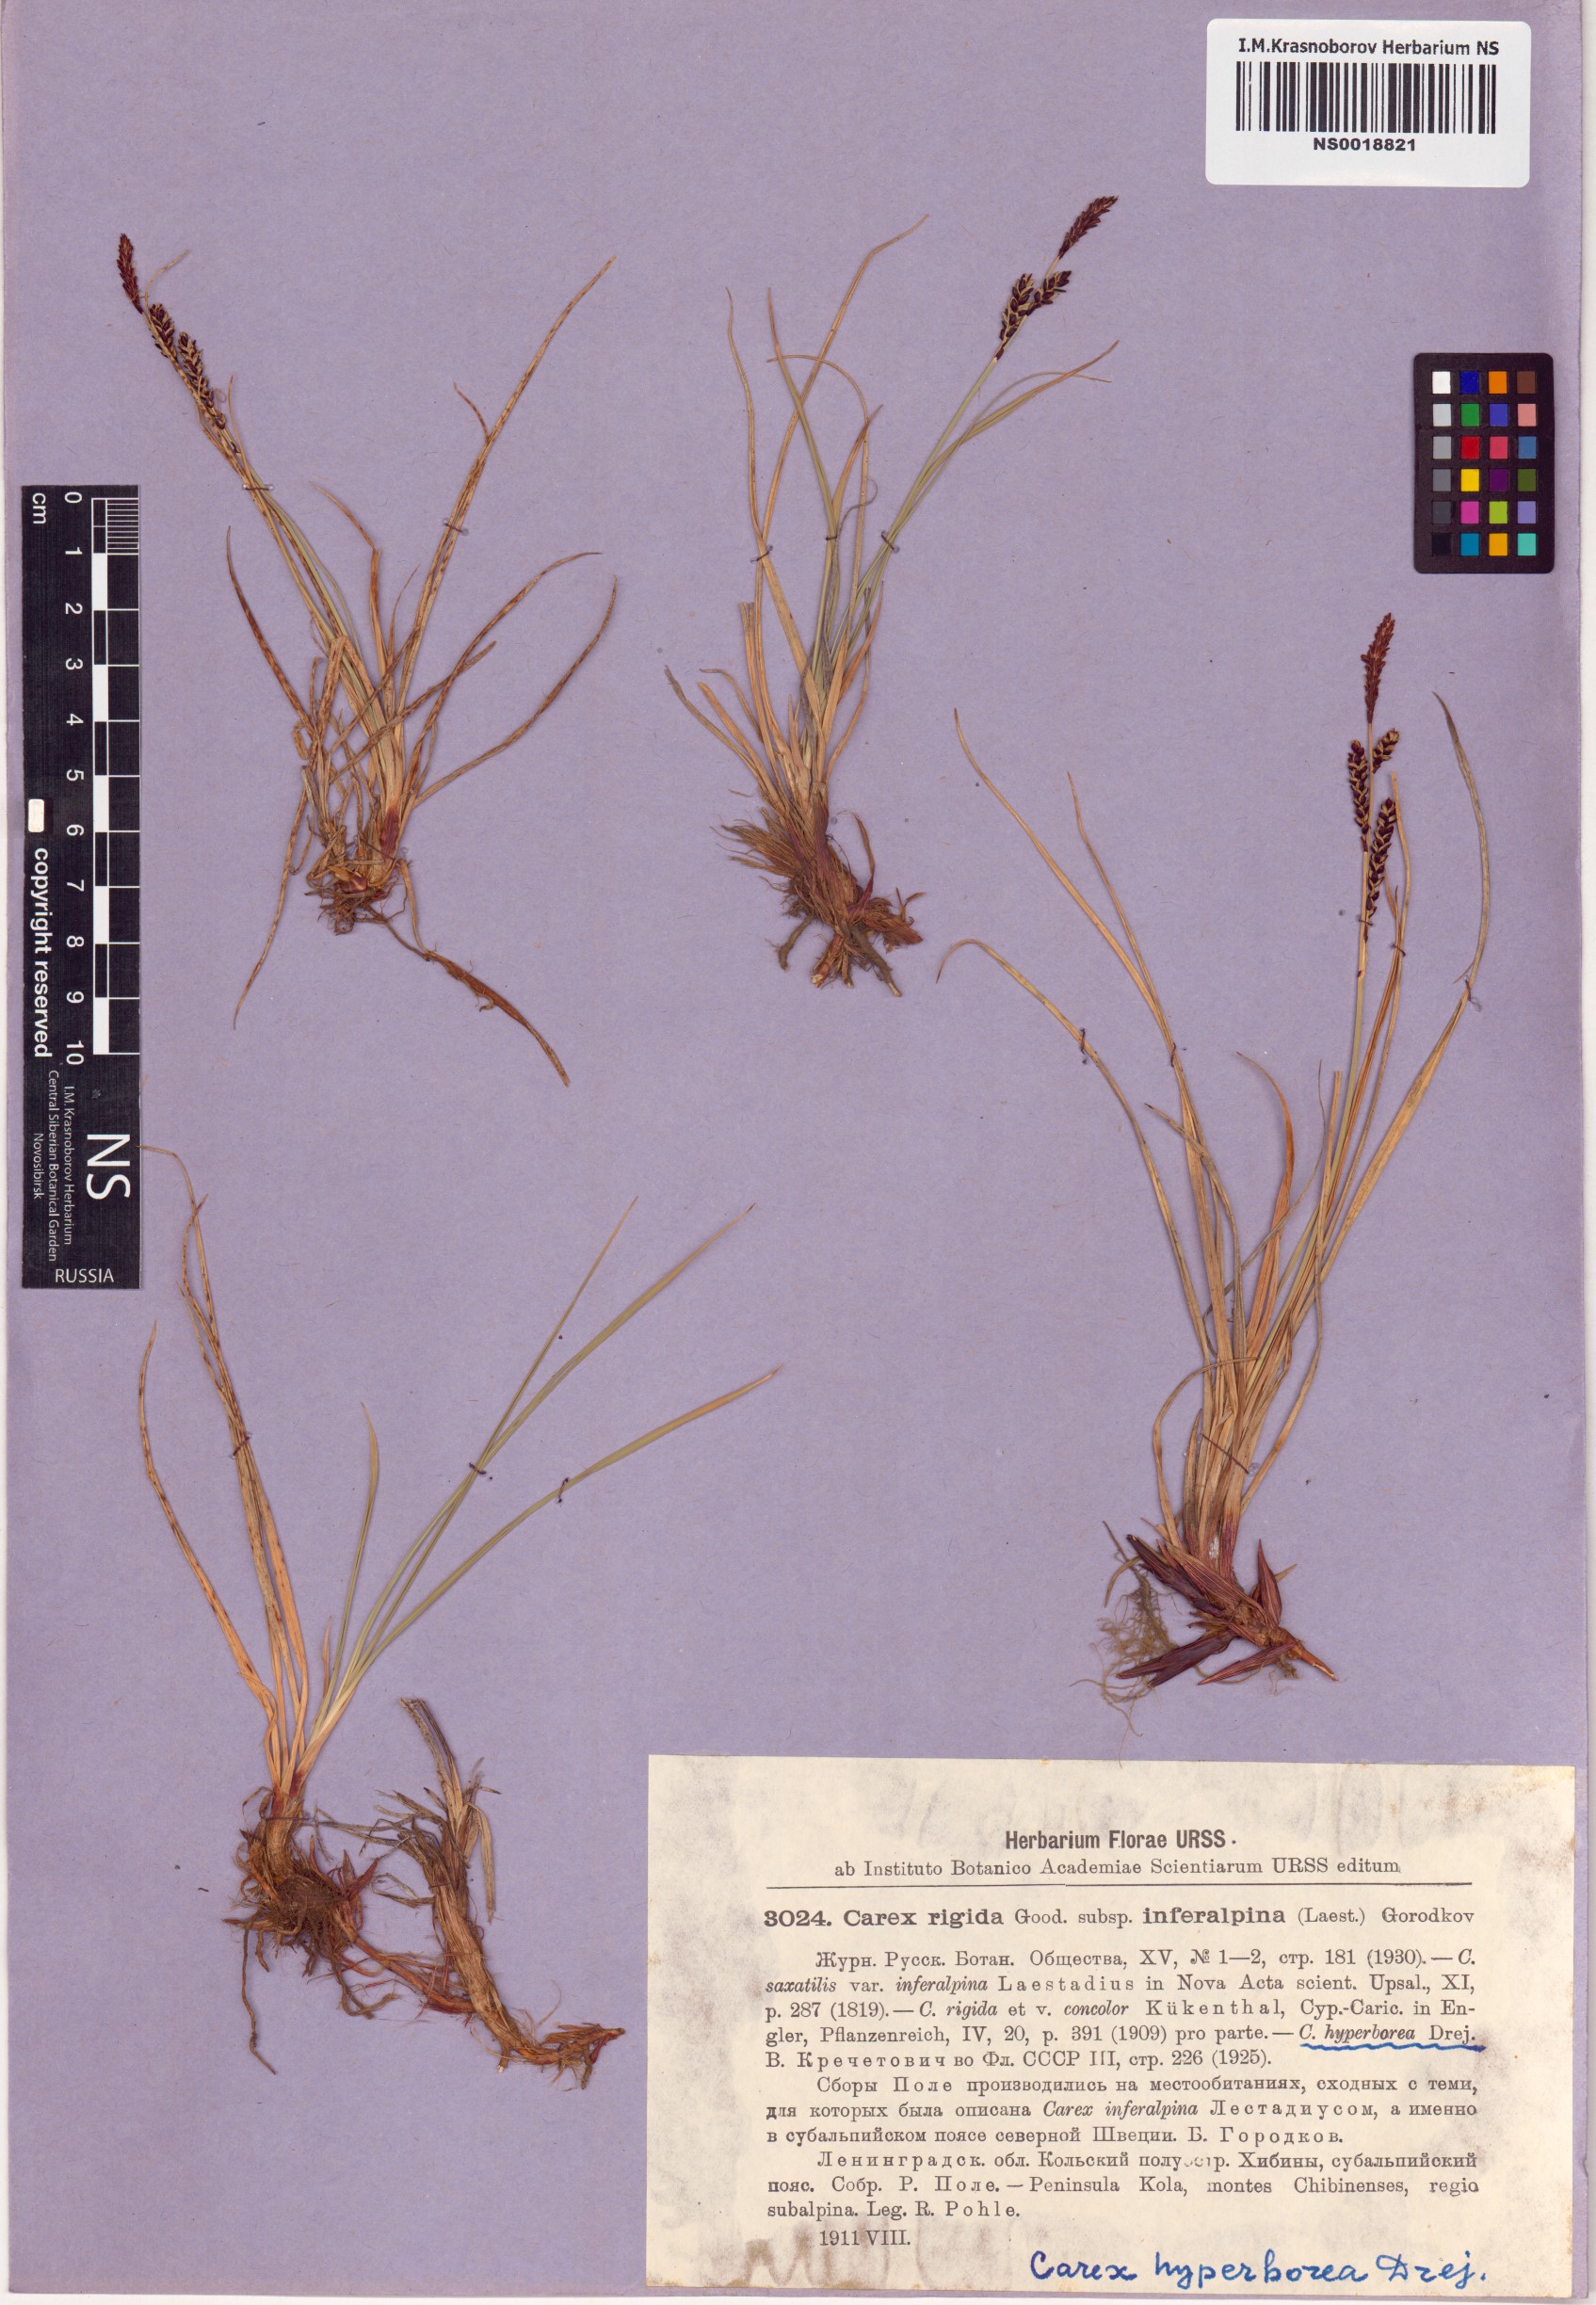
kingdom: Plantae
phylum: Tracheophyta
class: Liliopsida
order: Poales
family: Cyperaceae
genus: Carex
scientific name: Carex dacica
